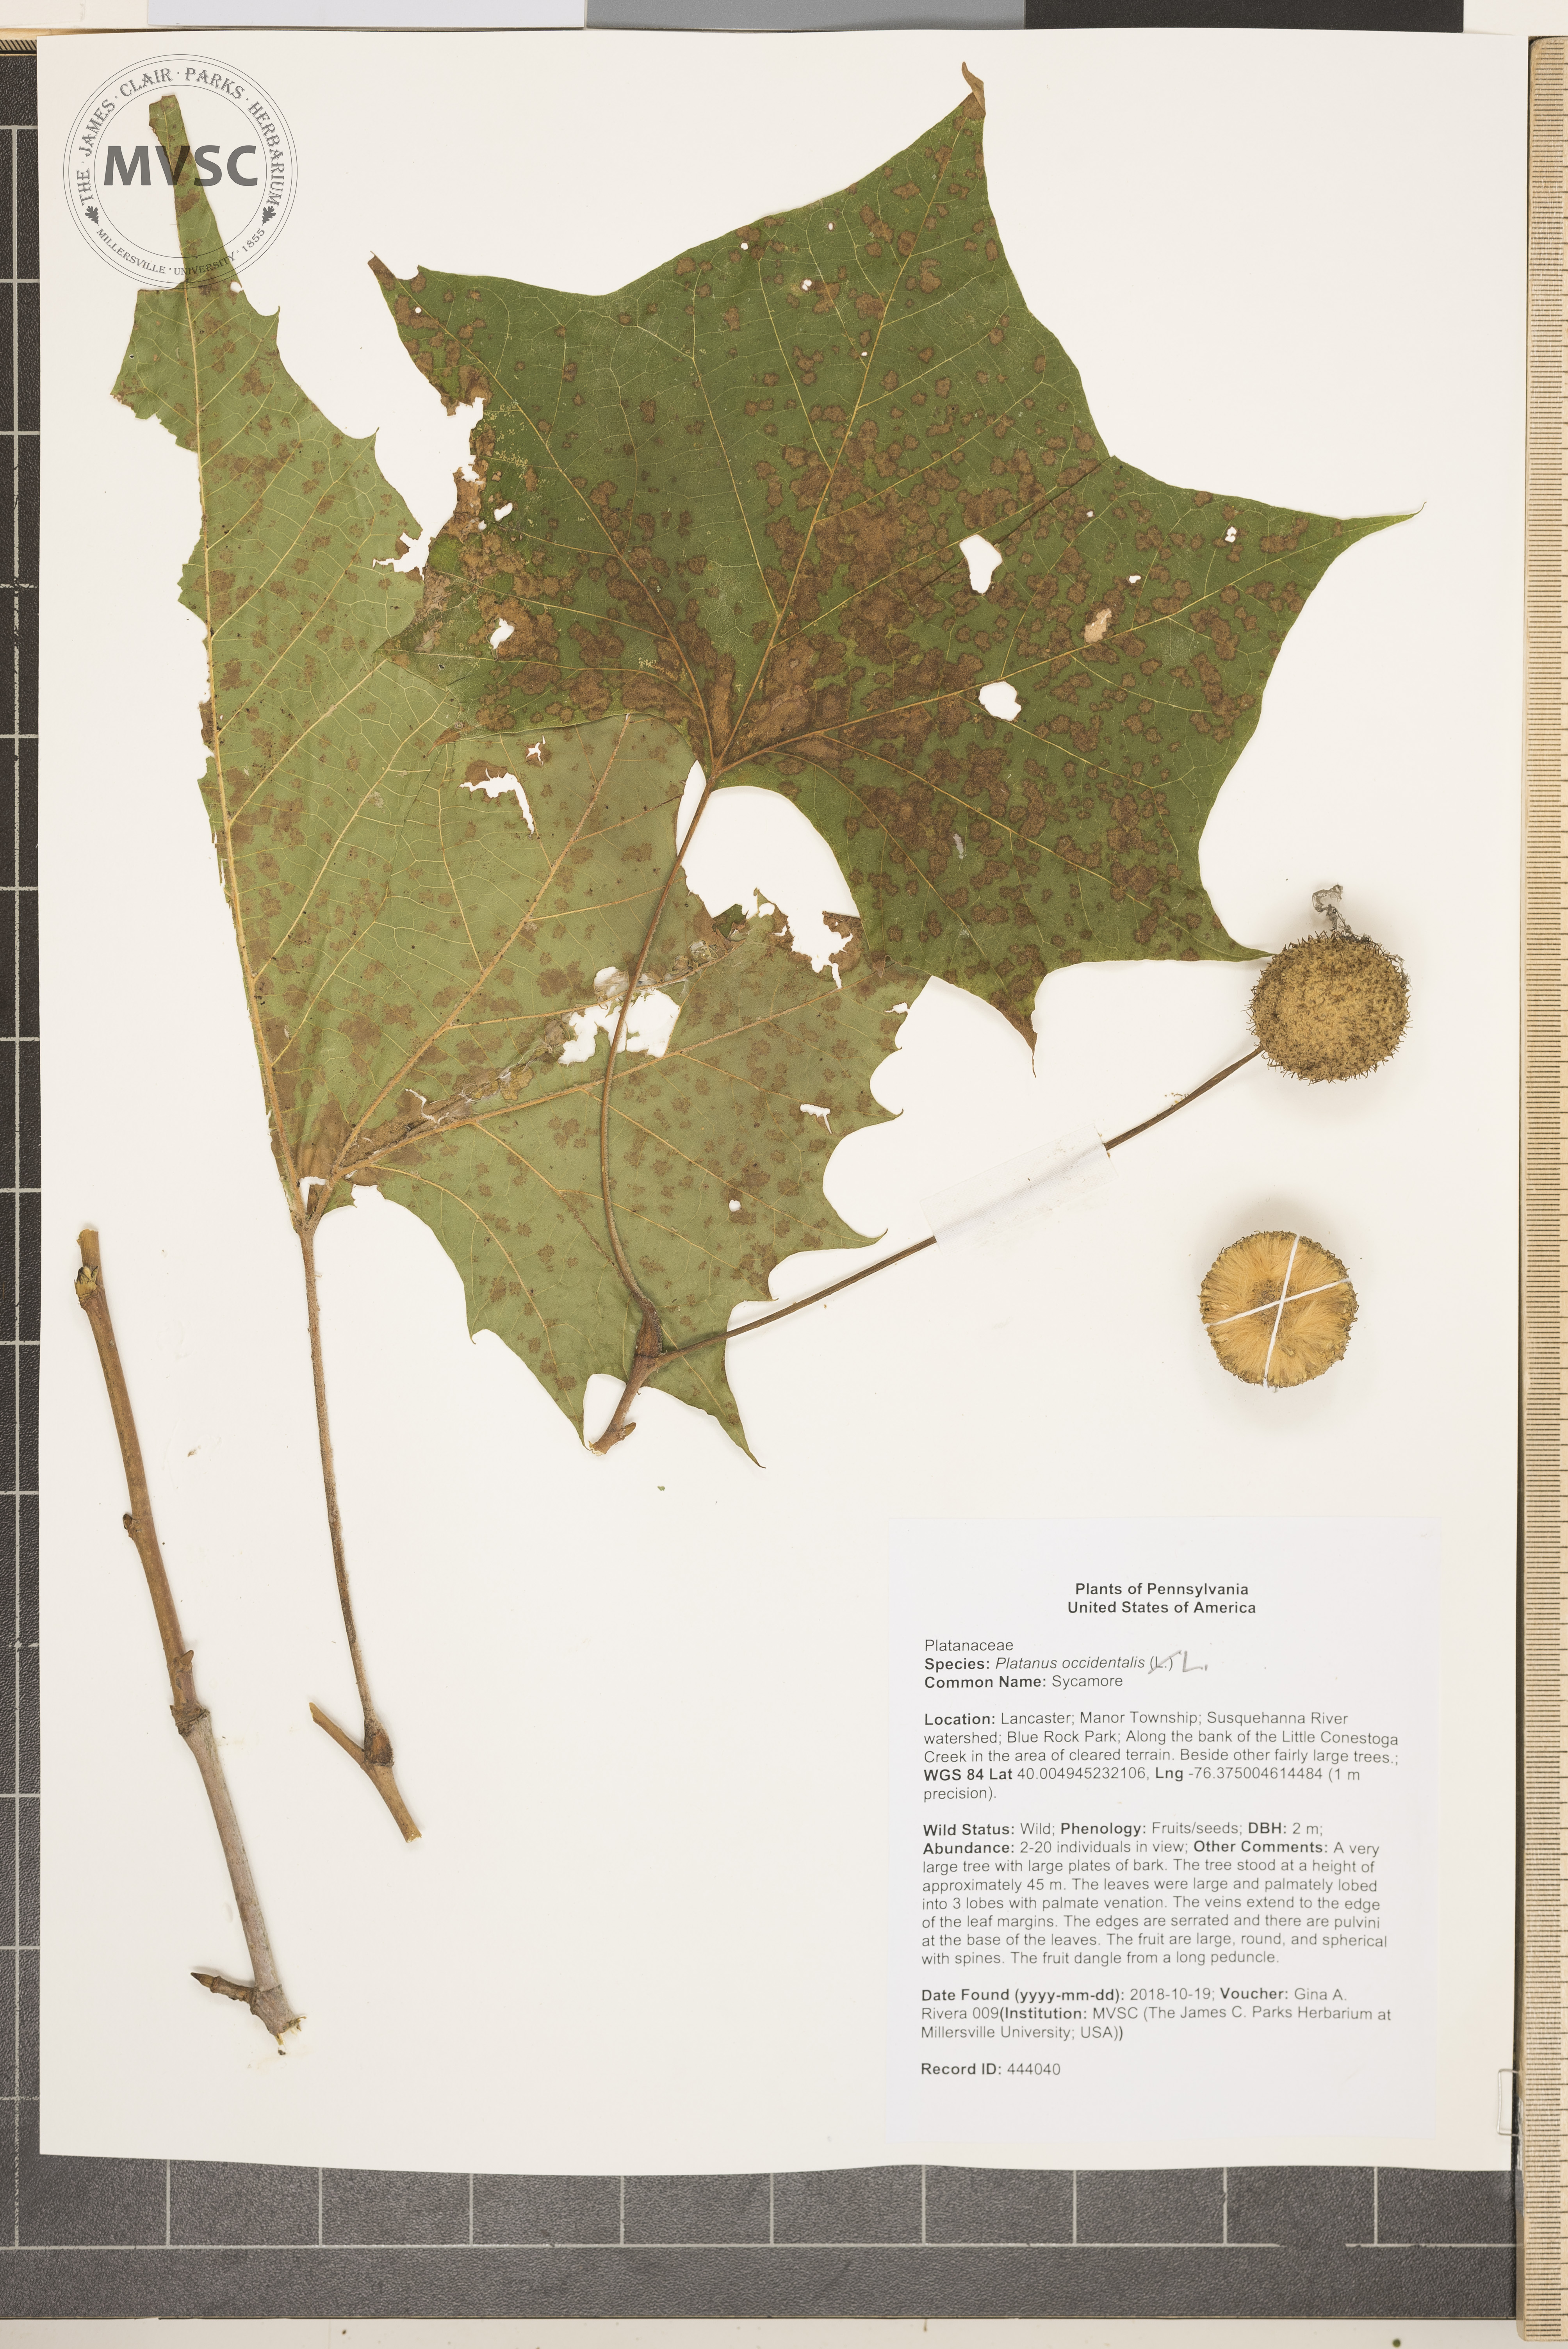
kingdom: Plantae
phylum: Tracheophyta
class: Magnoliopsida
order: Proteales
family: Platanaceae
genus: Platanus
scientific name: Platanus occidentalis
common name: Sycamore
